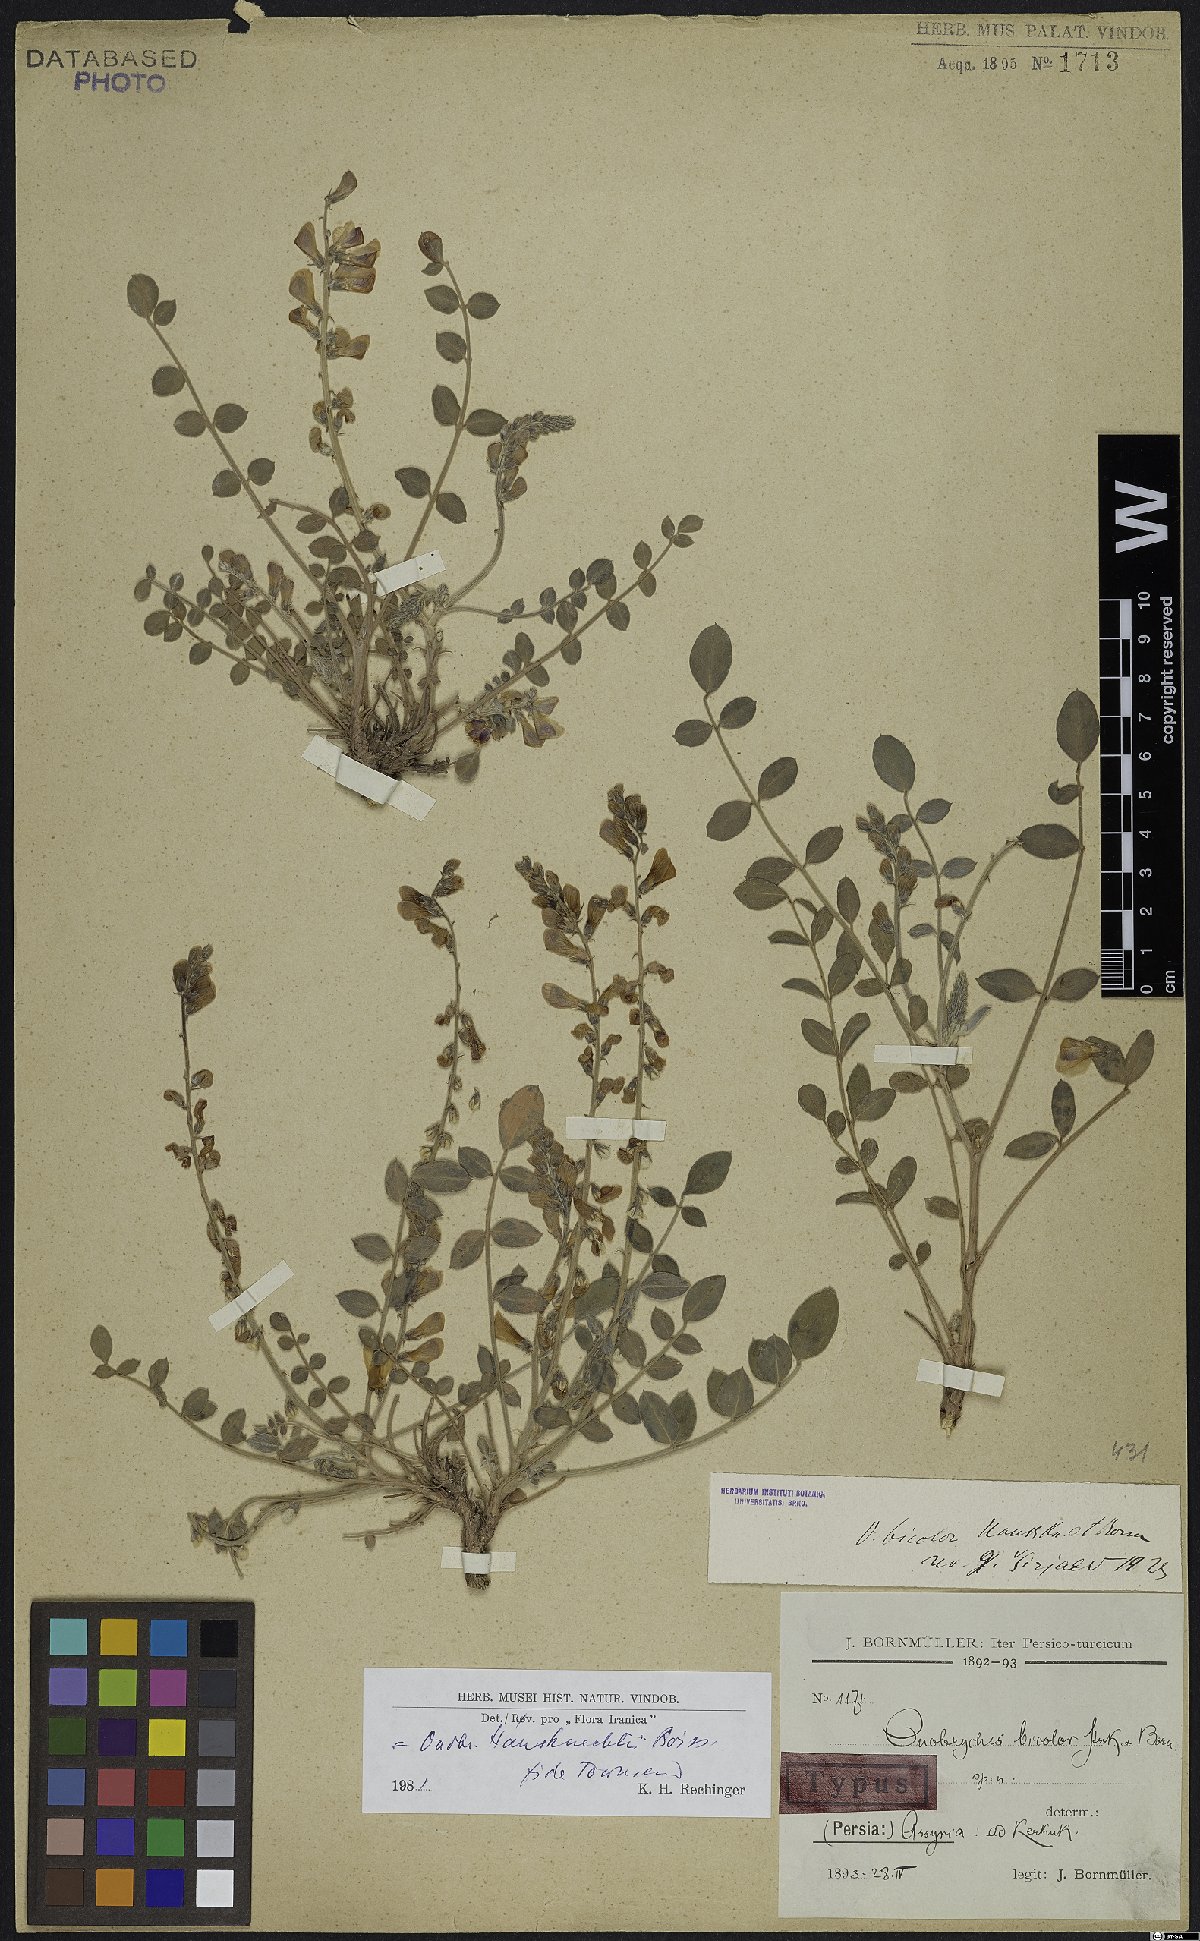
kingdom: Plantae
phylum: Tracheophyta
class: Magnoliopsida
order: Fabales
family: Fabaceae
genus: Onobrychis
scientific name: Onobrychis haussknechtii
